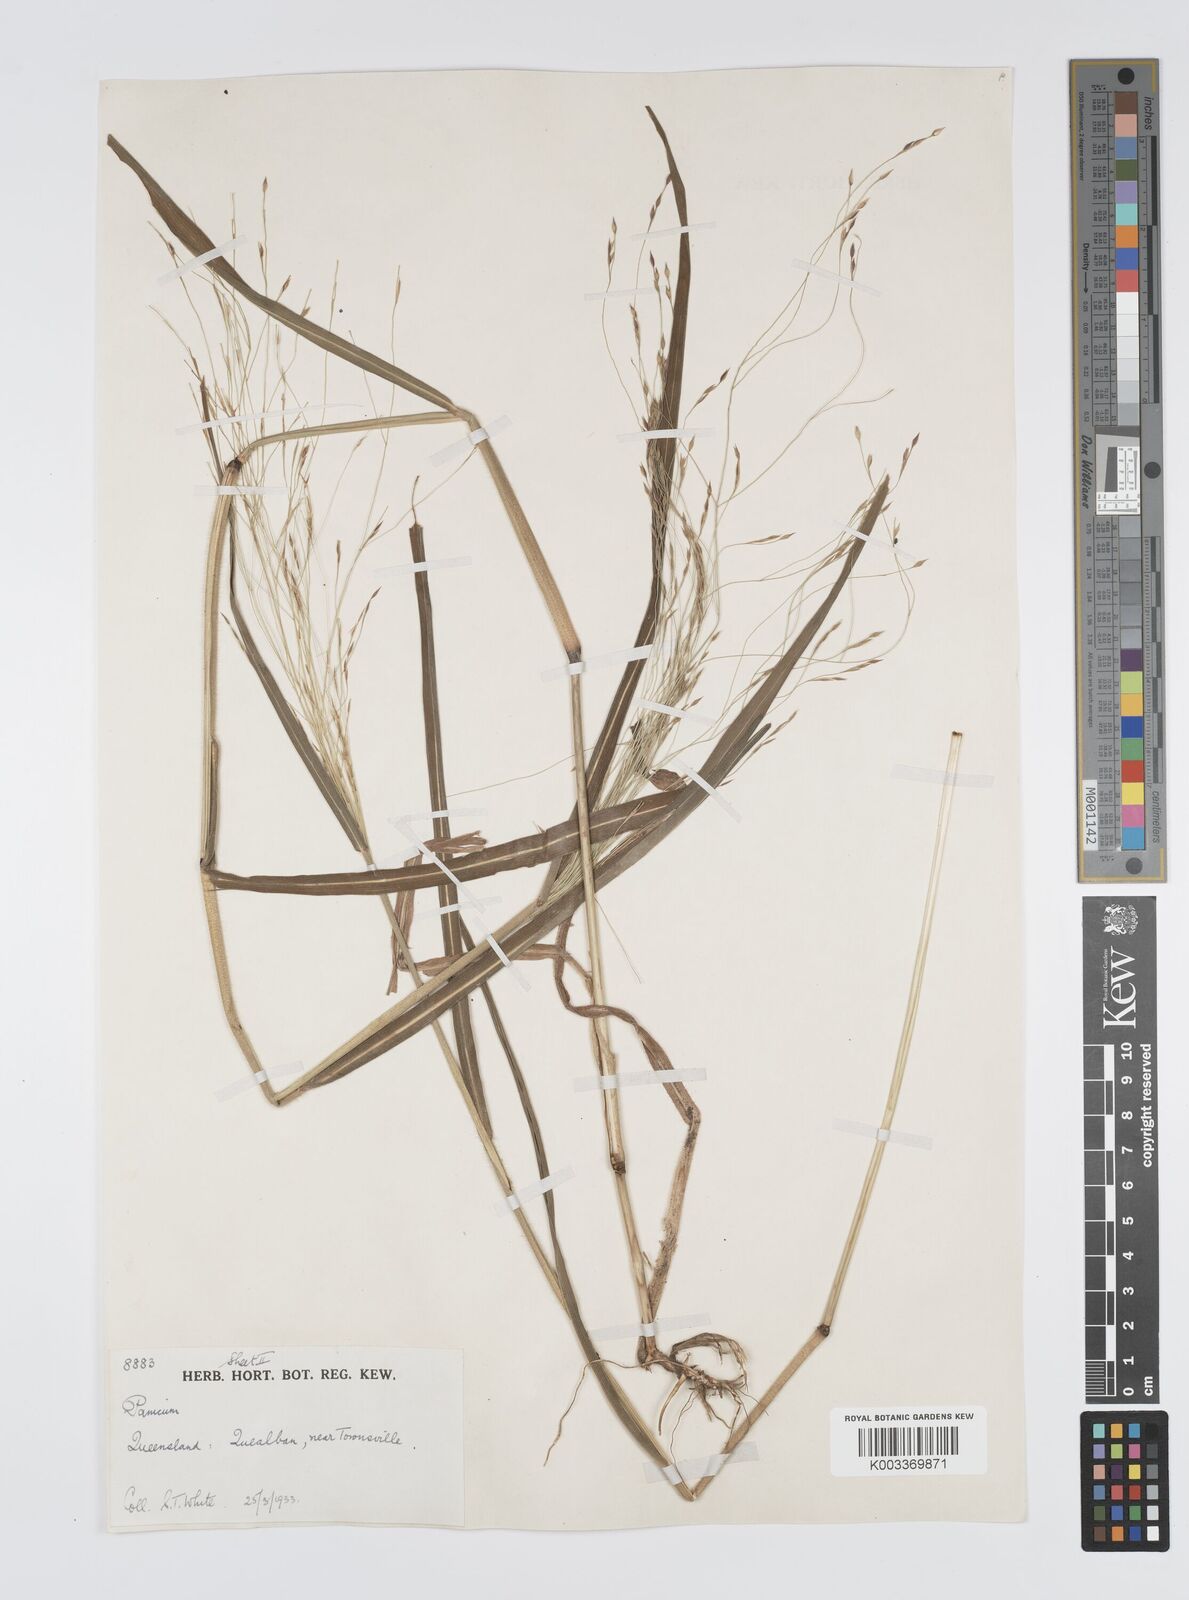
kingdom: Plantae
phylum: Tracheophyta
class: Liliopsida
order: Poales
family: Poaceae
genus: Panicum
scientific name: Panicum mitchellii
